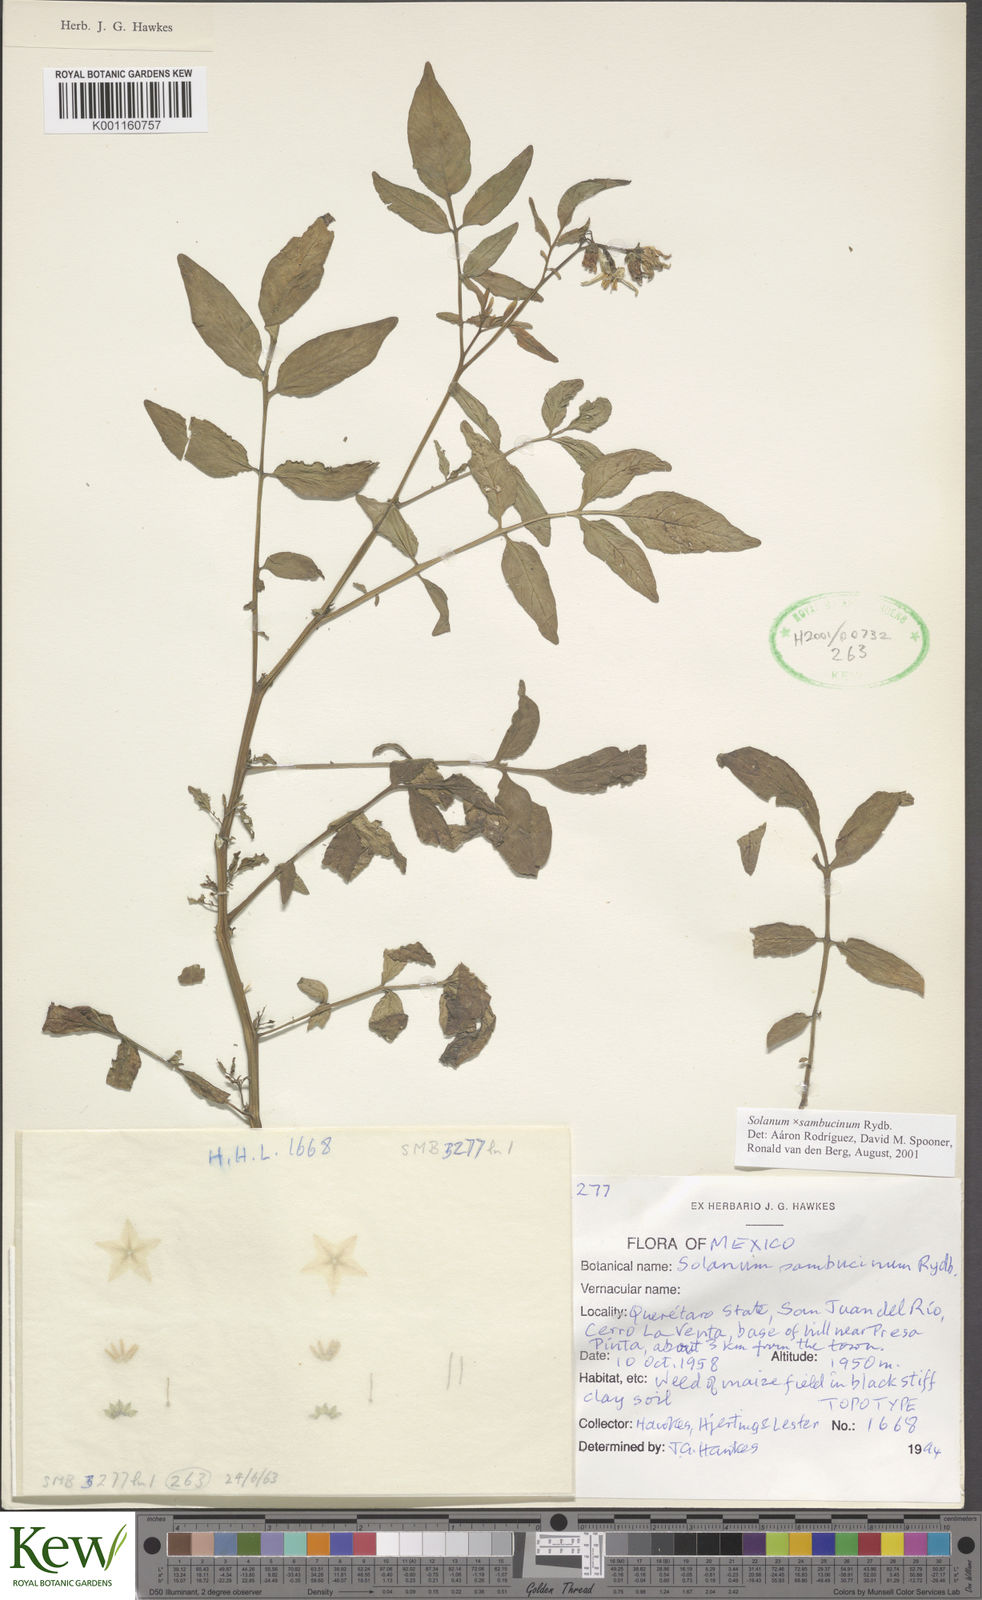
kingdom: Plantae
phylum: Tracheophyta
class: Magnoliopsida
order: Solanales
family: Solanaceae
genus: Solanum
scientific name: Solanum sambucinum
